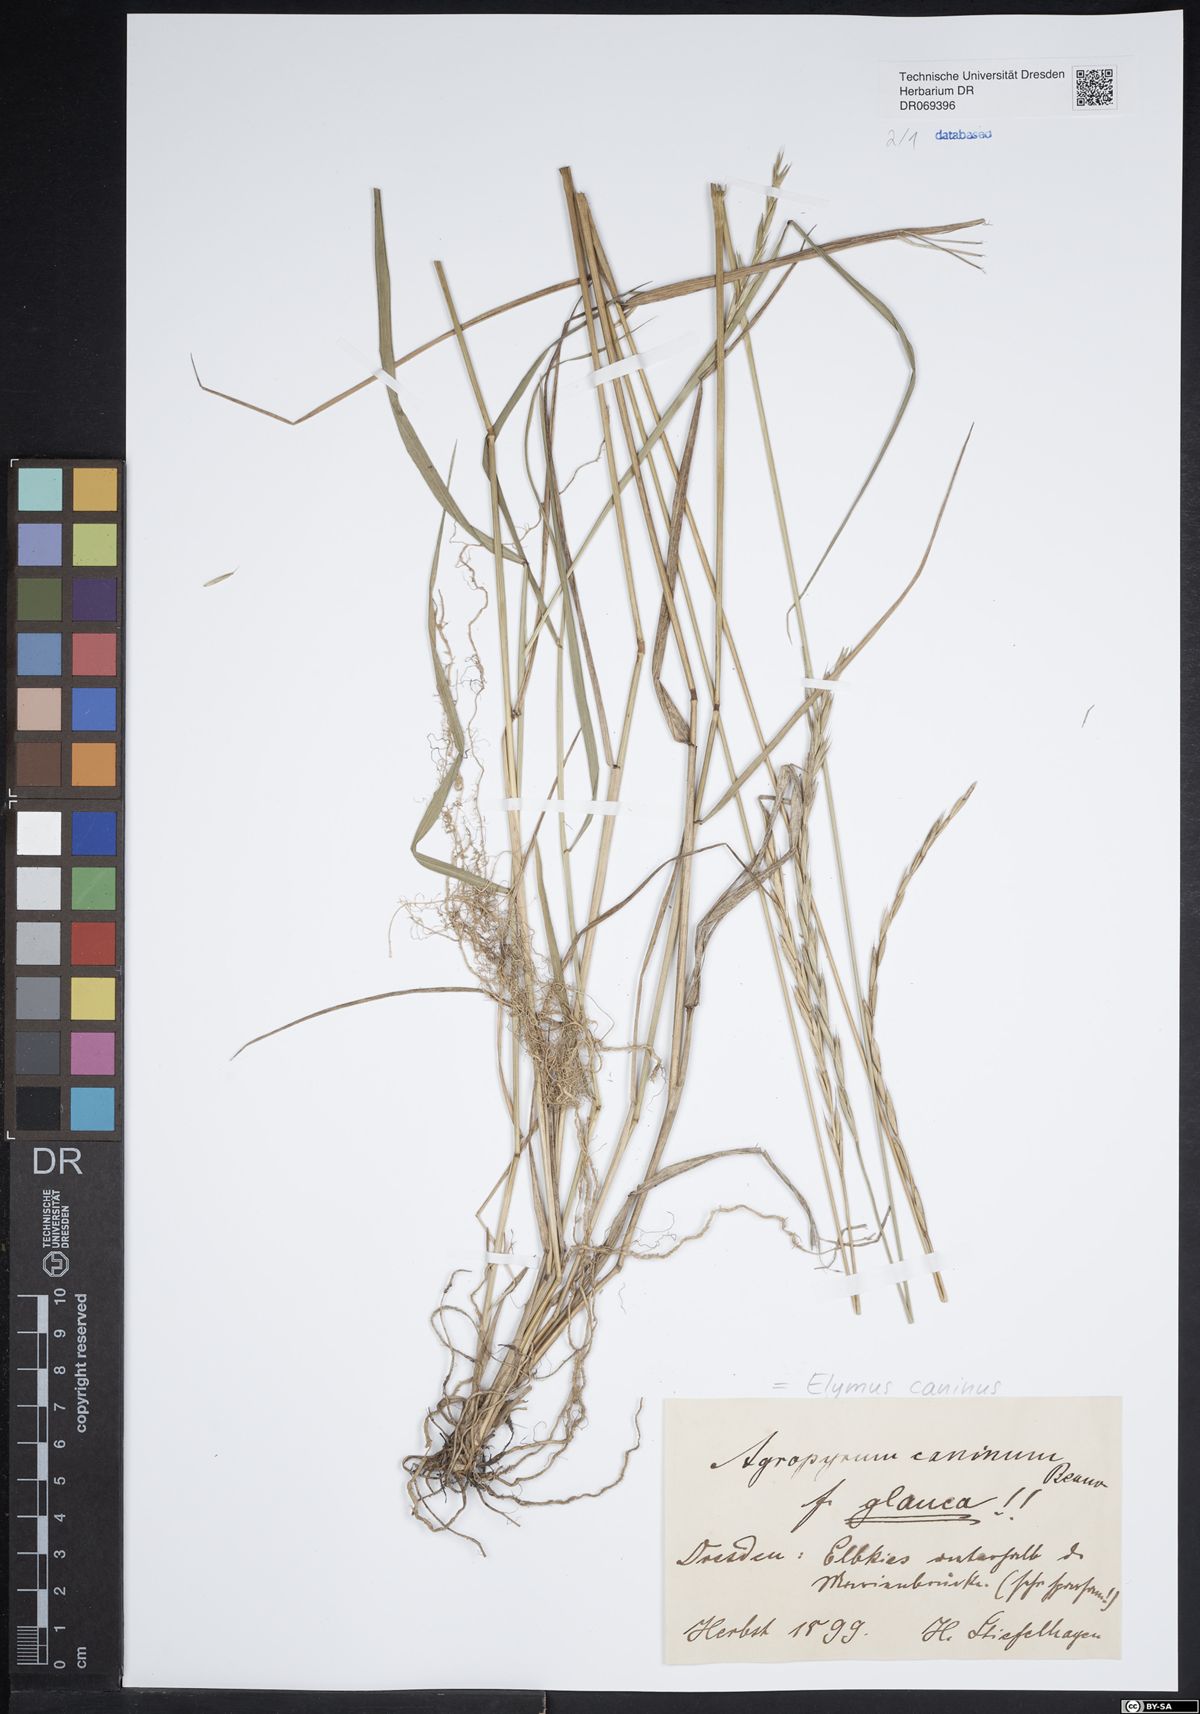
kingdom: Plantae
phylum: Tracheophyta
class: Liliopsida
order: Poales
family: Poaceae
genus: Elymus
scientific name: Elymus caninus
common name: Bearded couch
